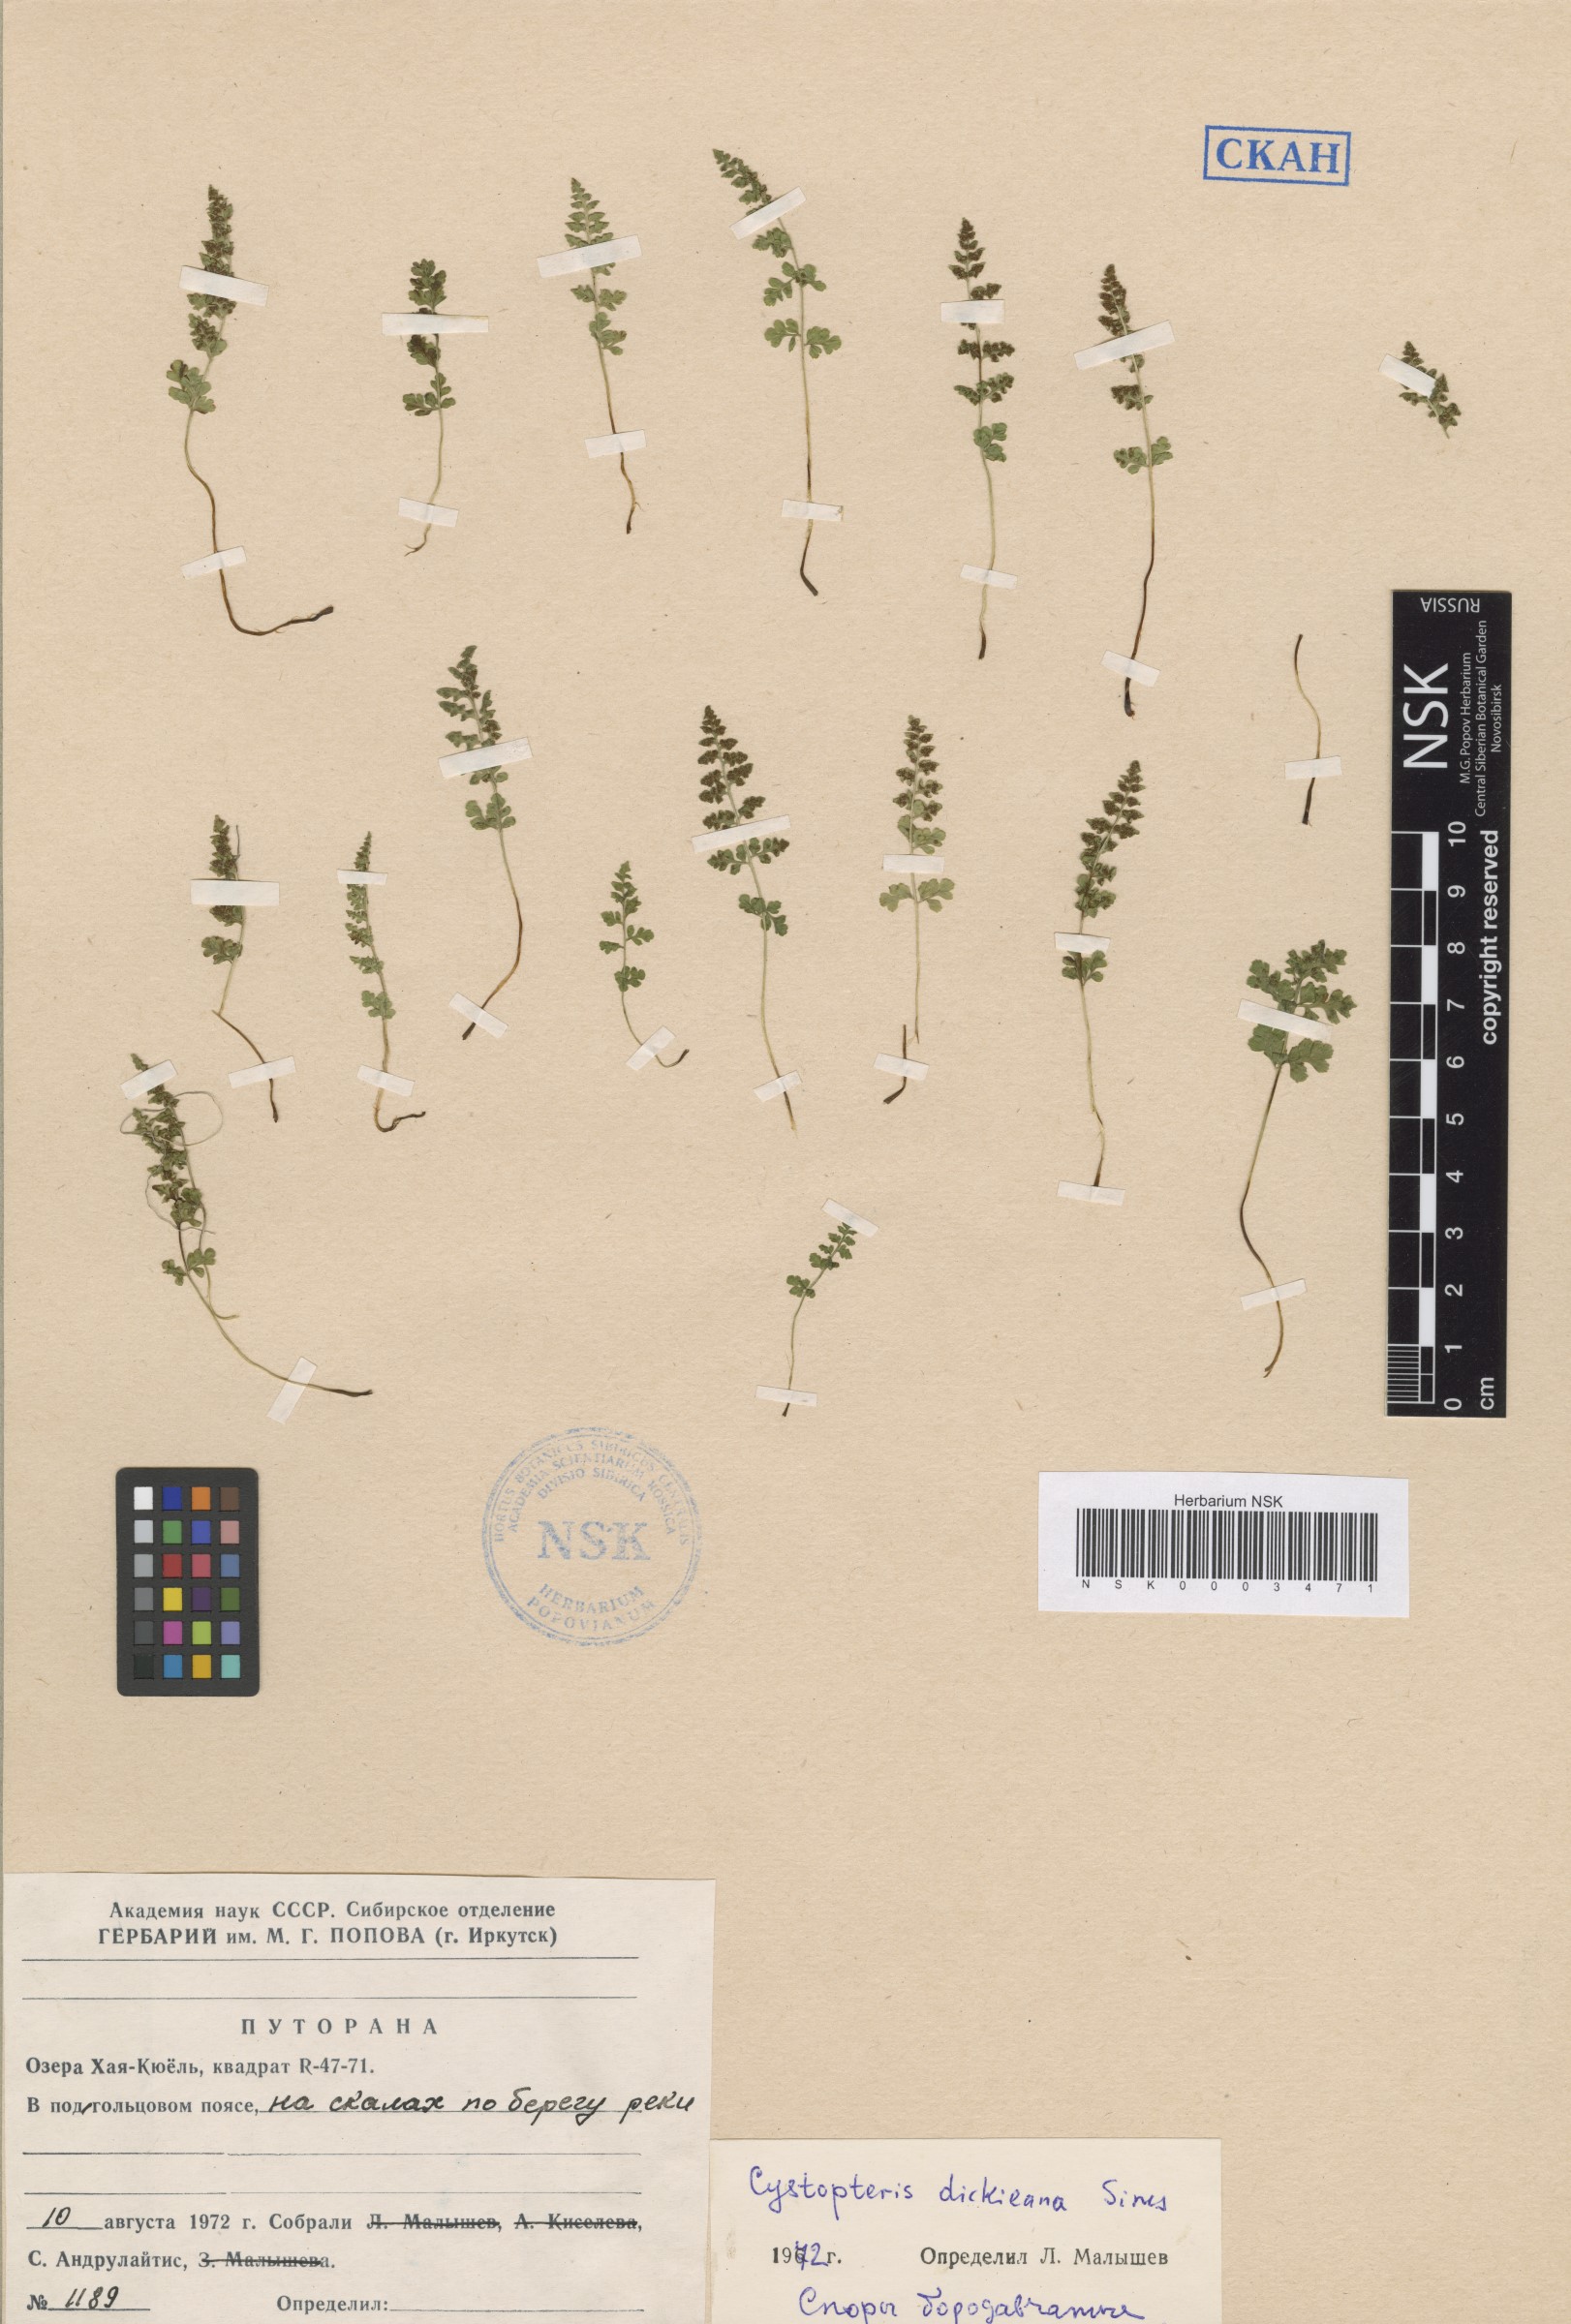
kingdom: Plantae
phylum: Tracheophyta
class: Polypodiopsida
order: Polypodiales
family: Cystopteridaceae
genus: Cystopteris
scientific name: Cystopteris dickieana
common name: Dickie's bladder-fern
